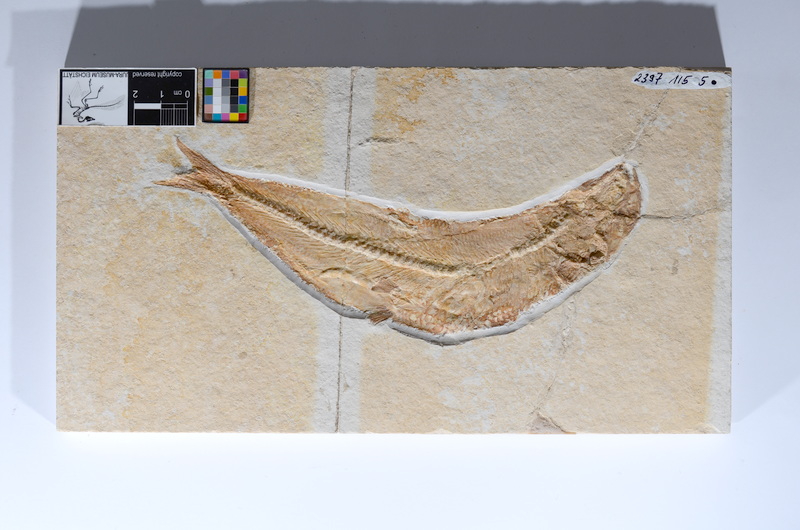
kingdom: Animalia
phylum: Chordata
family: Ascalaboidae
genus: Tharsis
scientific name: Tharsis dubius
